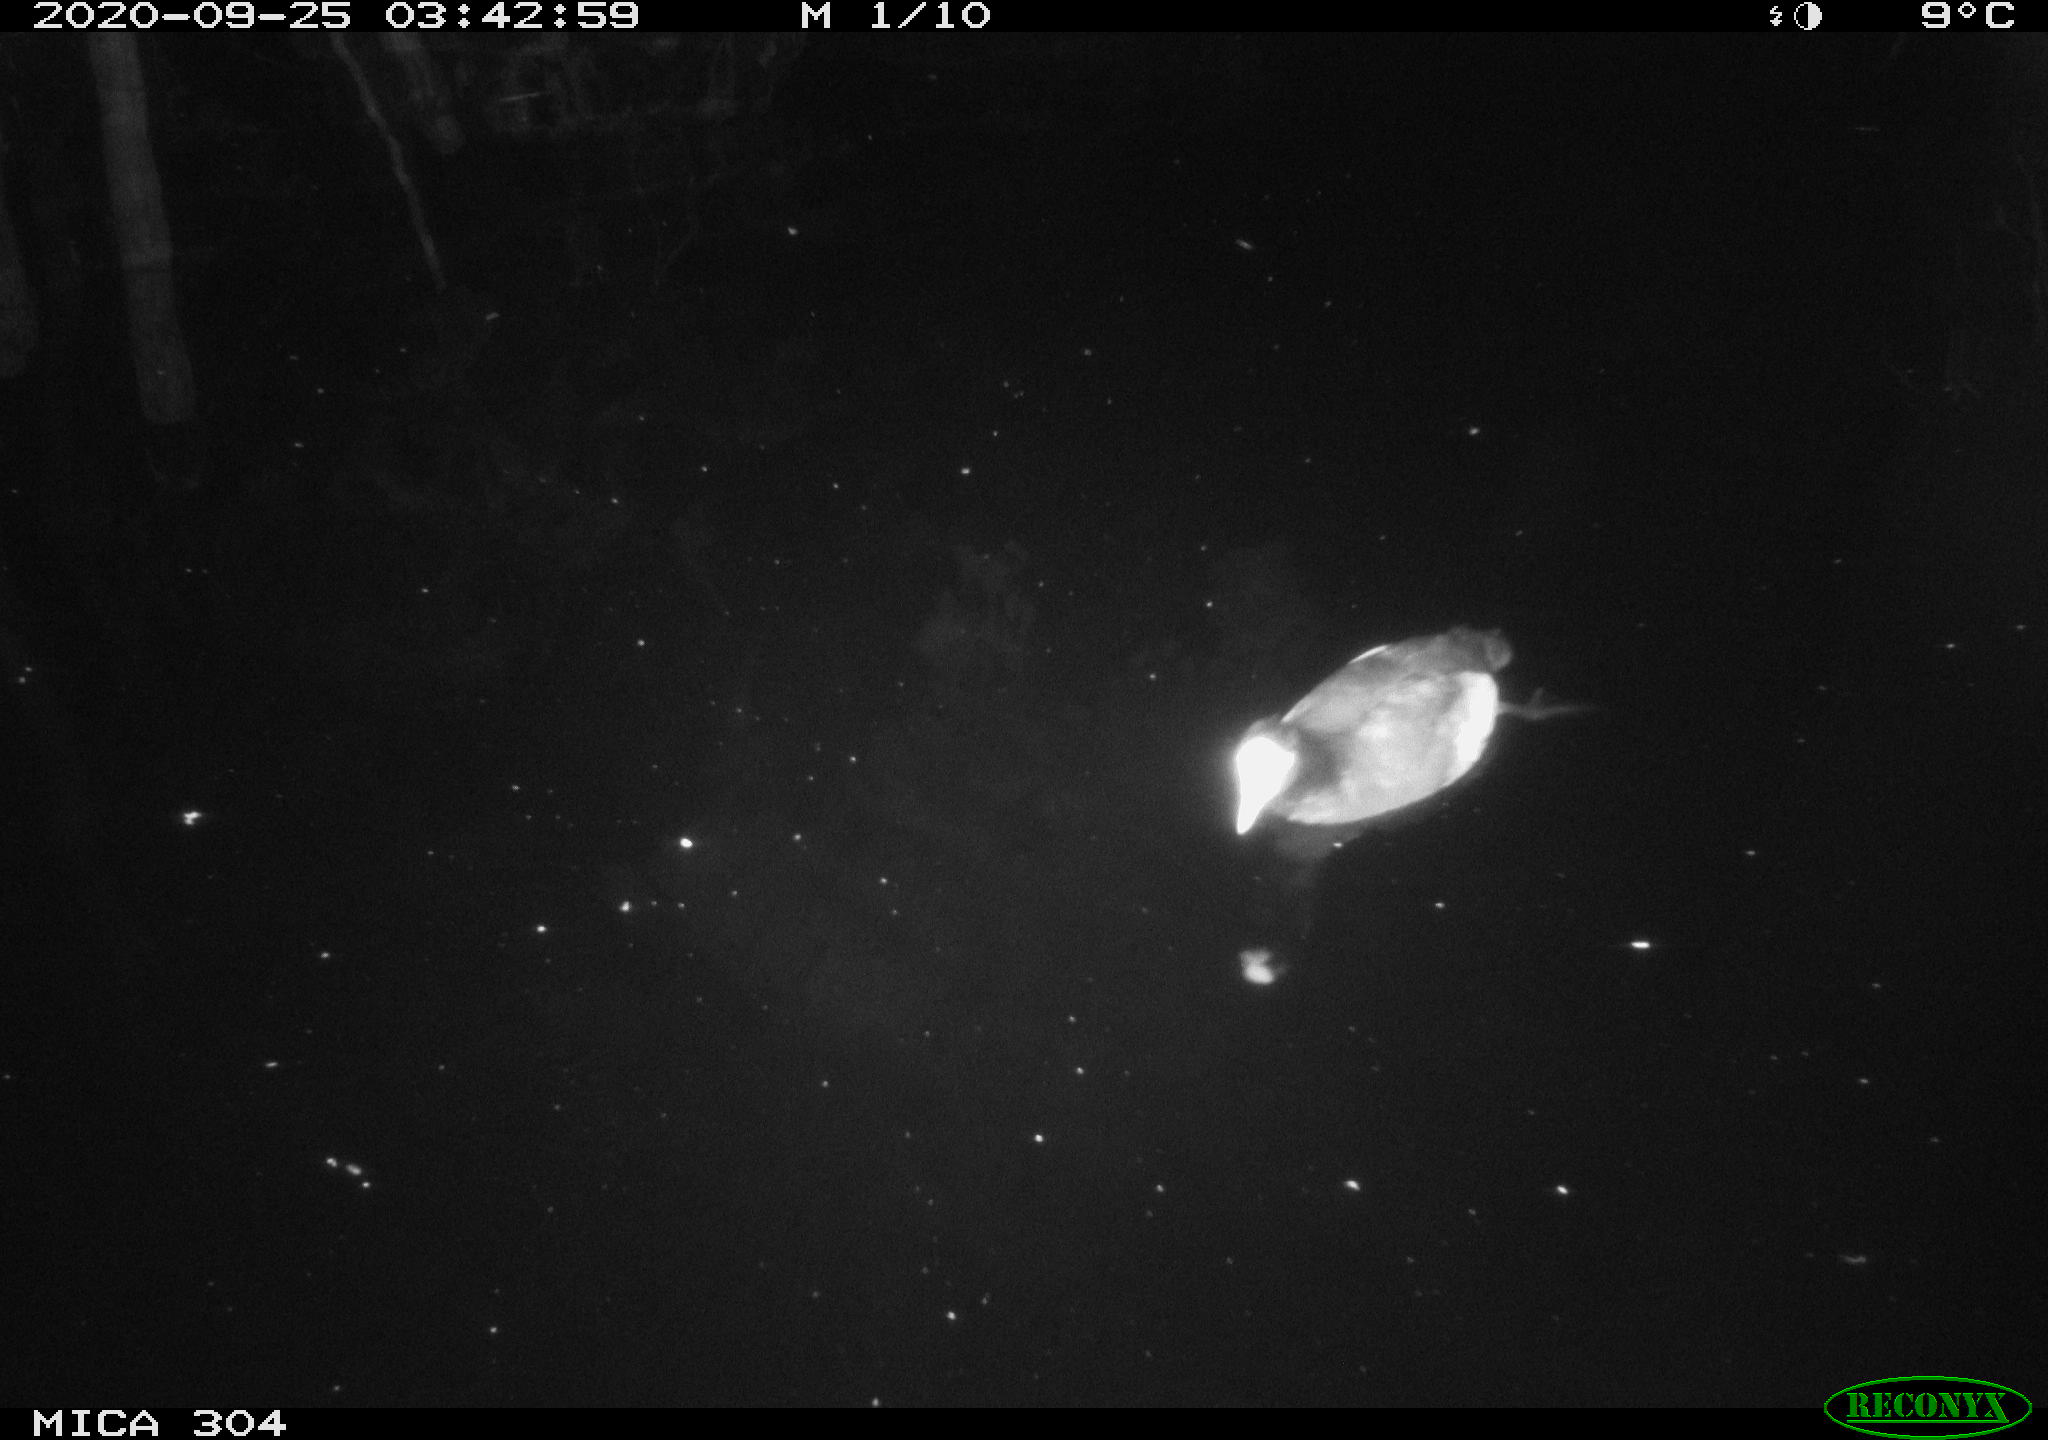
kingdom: Animalia
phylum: Chordata
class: Aves
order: Gruiformes
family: Rallidae
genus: Fulica
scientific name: Fulica atra
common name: Eurasian coot
